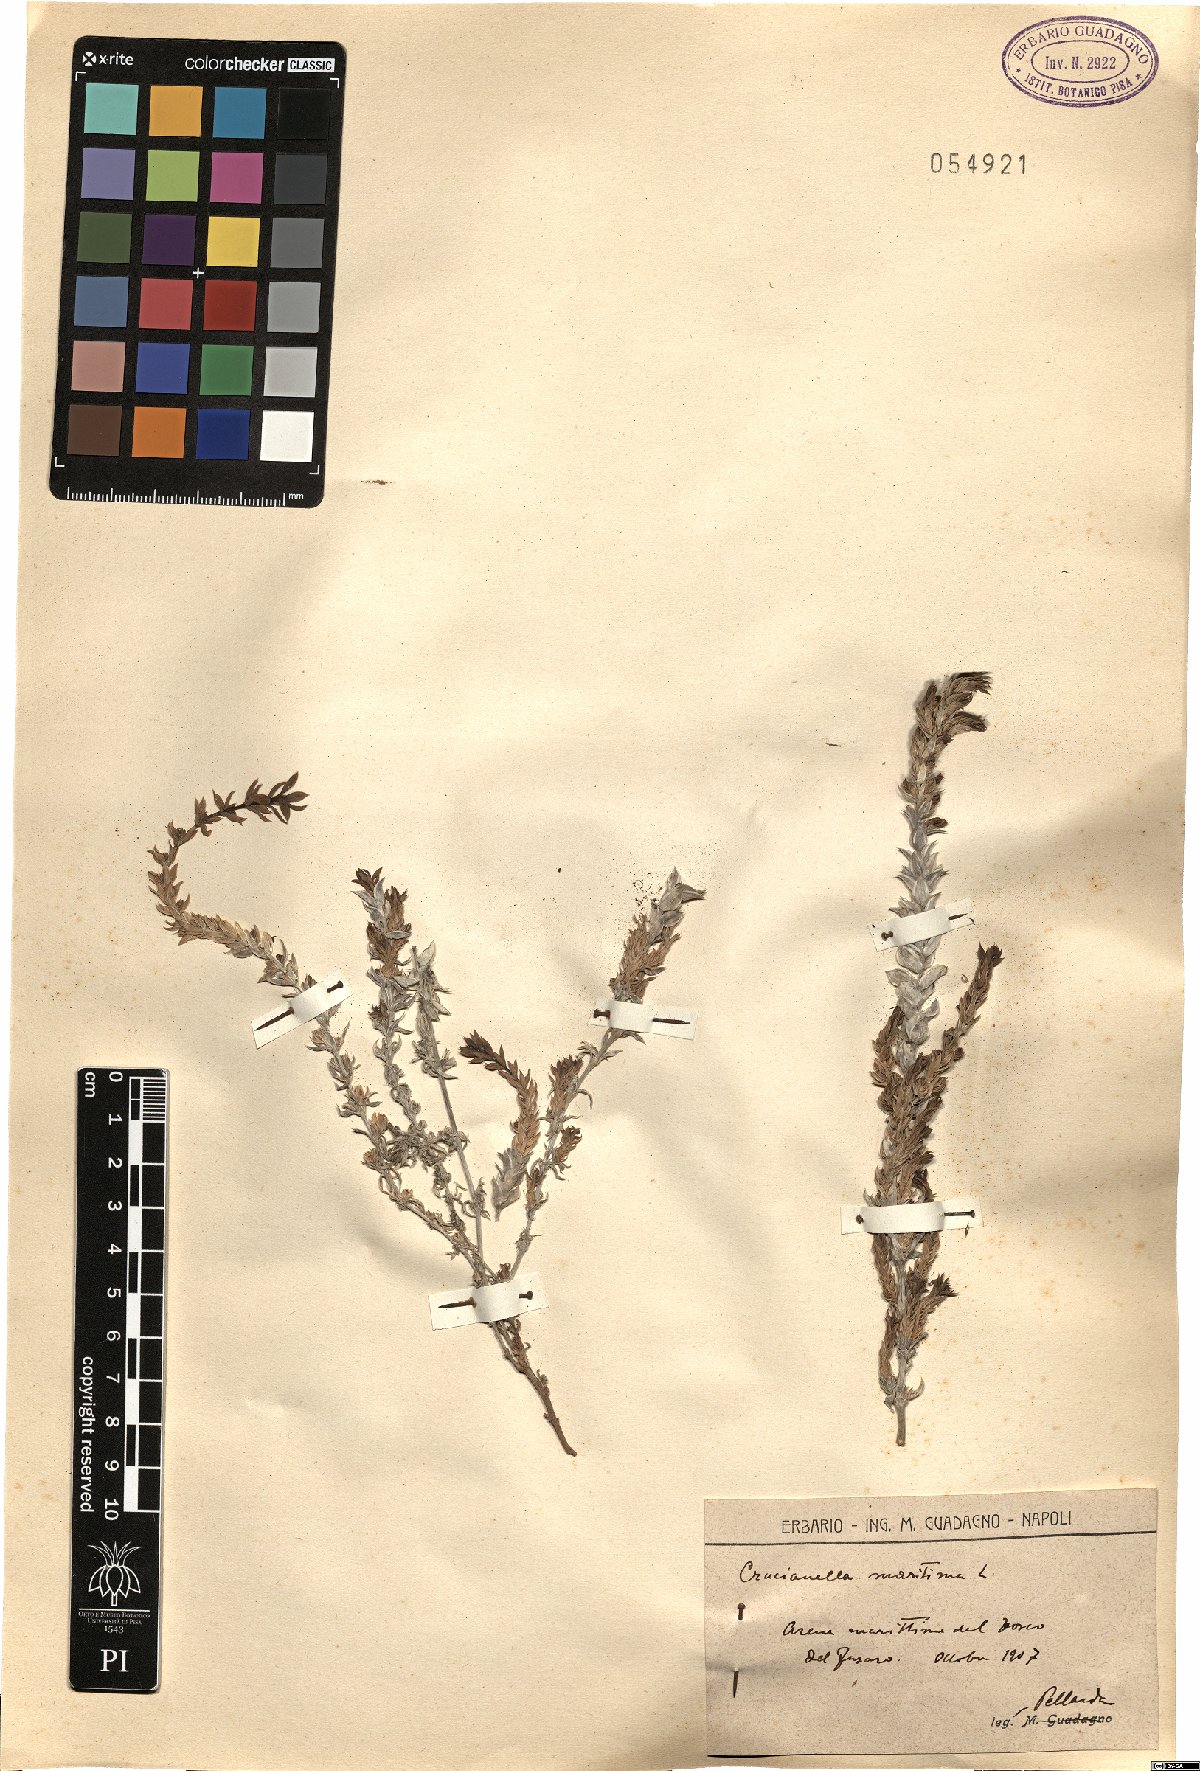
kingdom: Plantae
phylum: Tracheophyta
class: Magnoliopsida
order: Gentianales
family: Rubiaceae
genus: Crucianella
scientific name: Crucianella maritima
